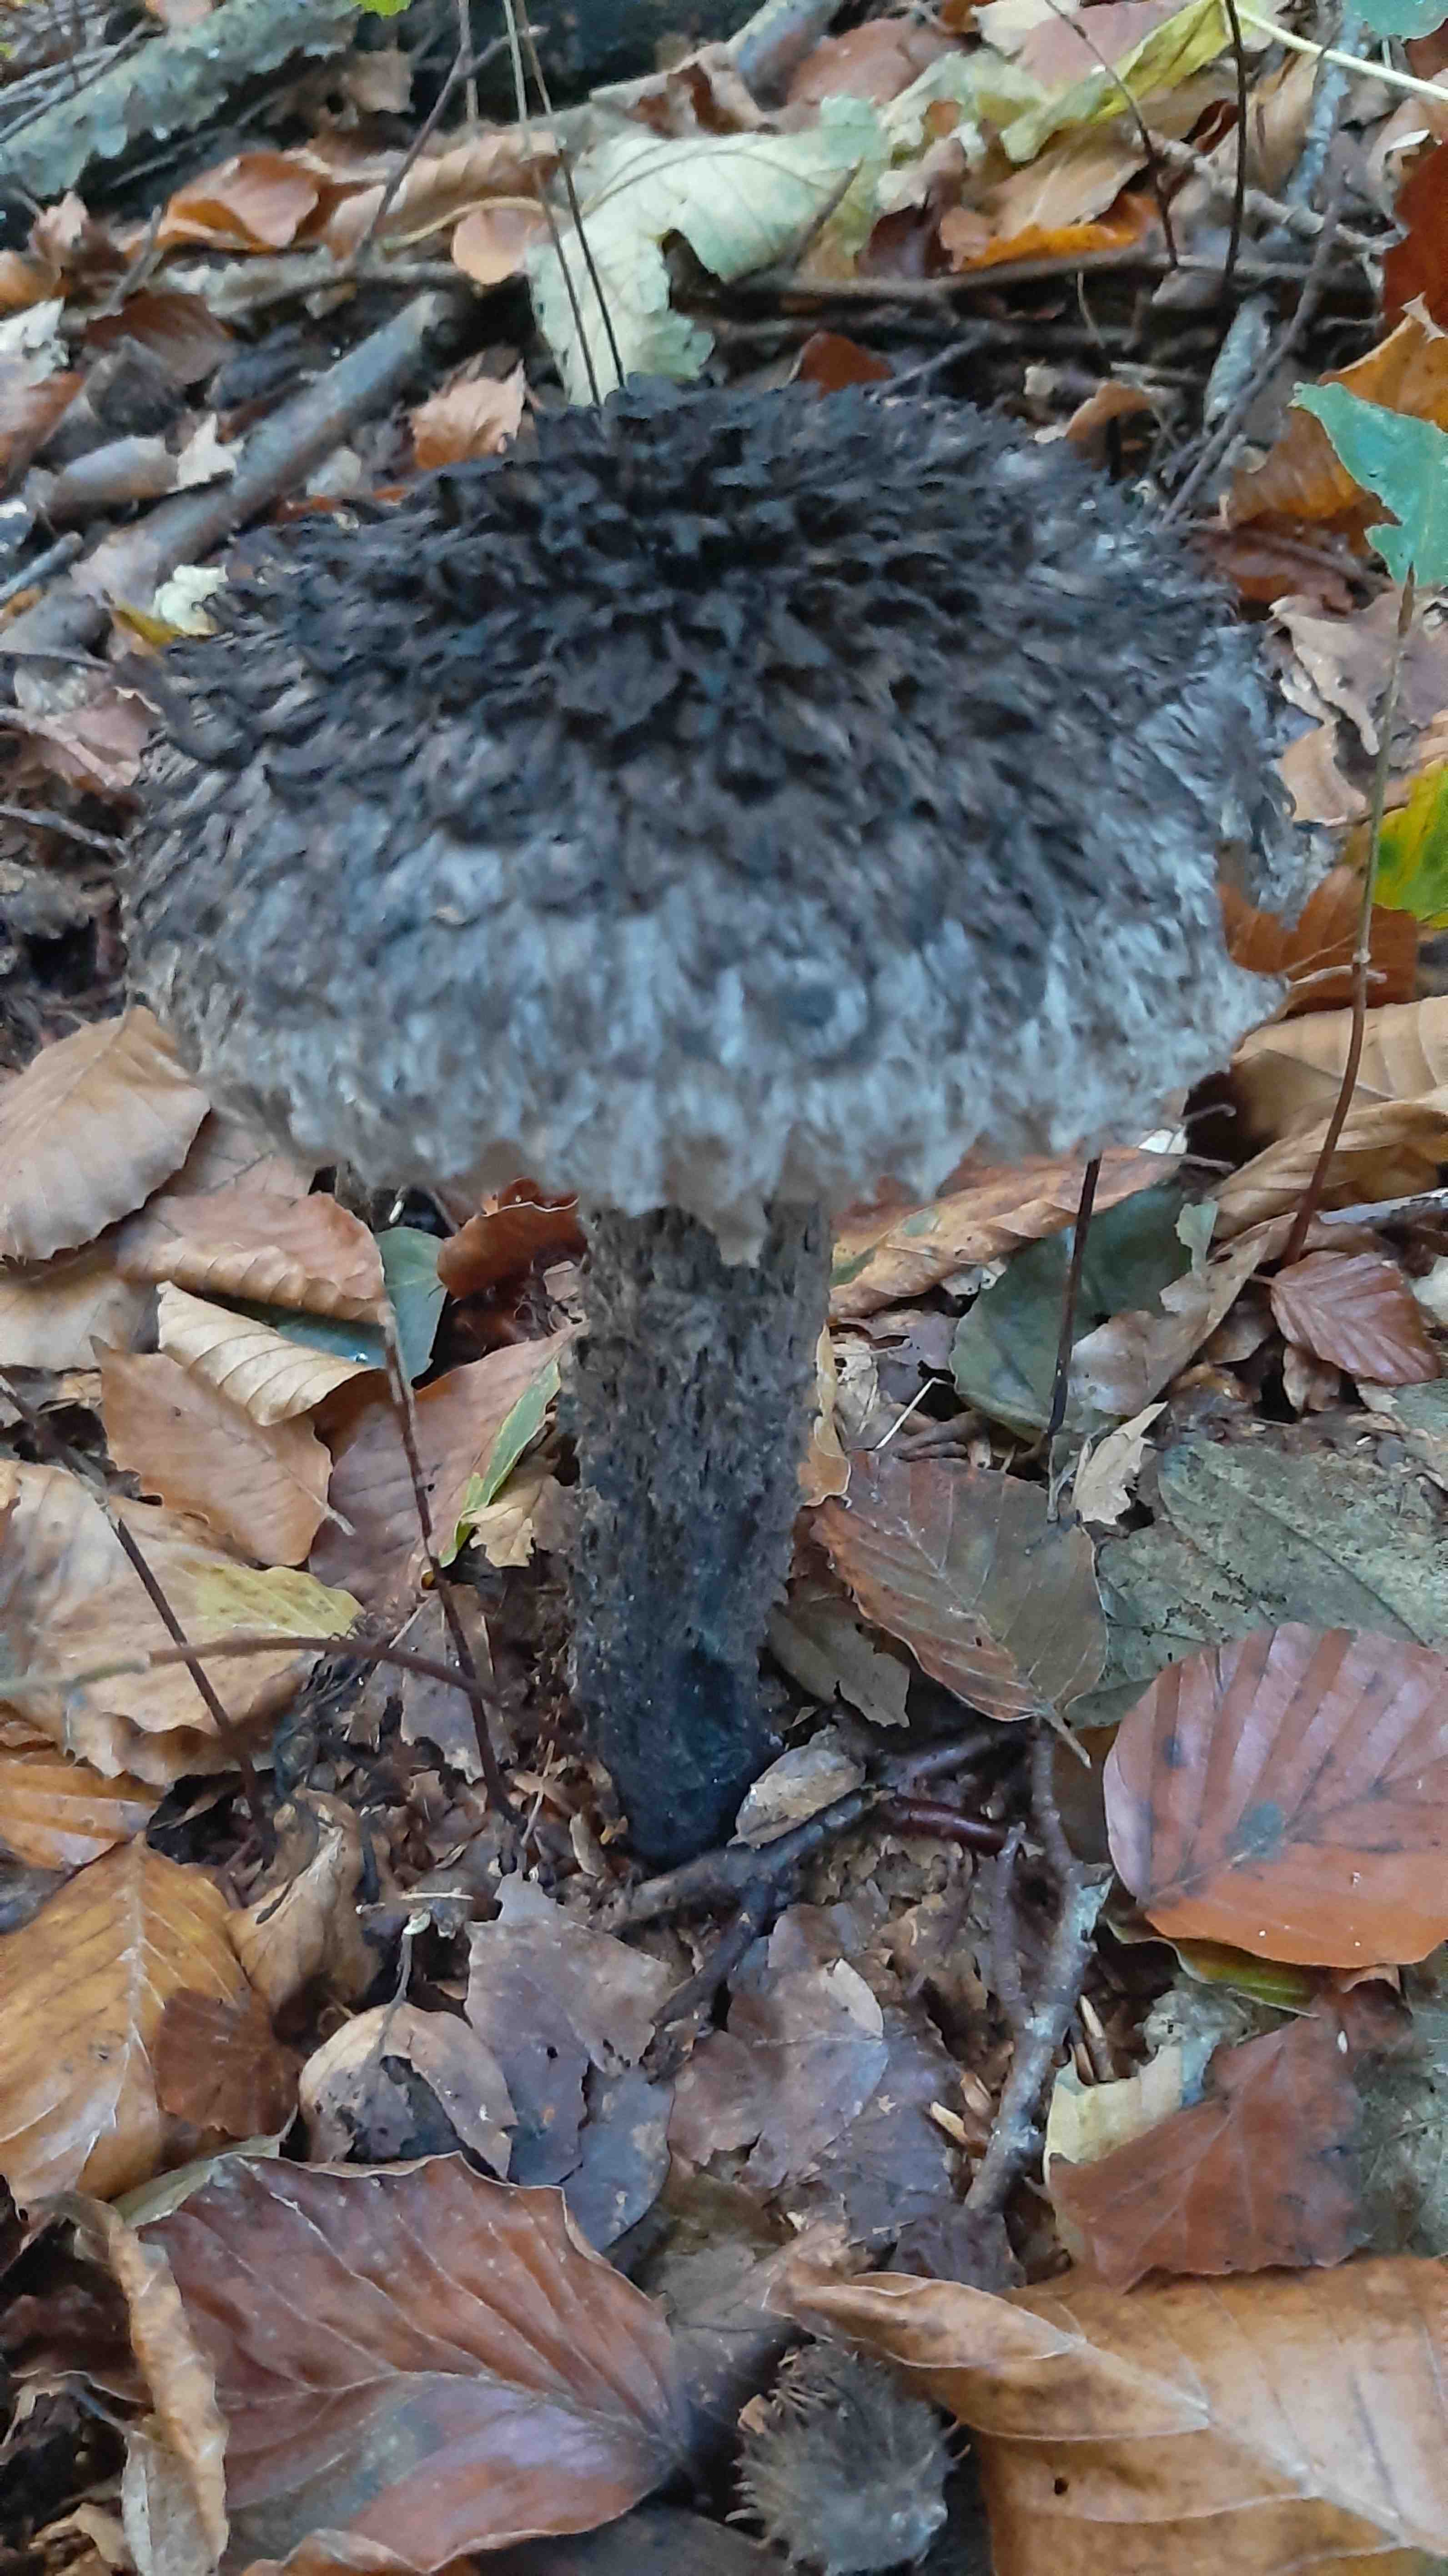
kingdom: Fungi
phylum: Basidiomycota
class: Agaricomycetes
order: Boletales
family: Boletaceae
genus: Strobilomyces
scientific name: Strobilomyces strobilaceus
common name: koglerørhat
